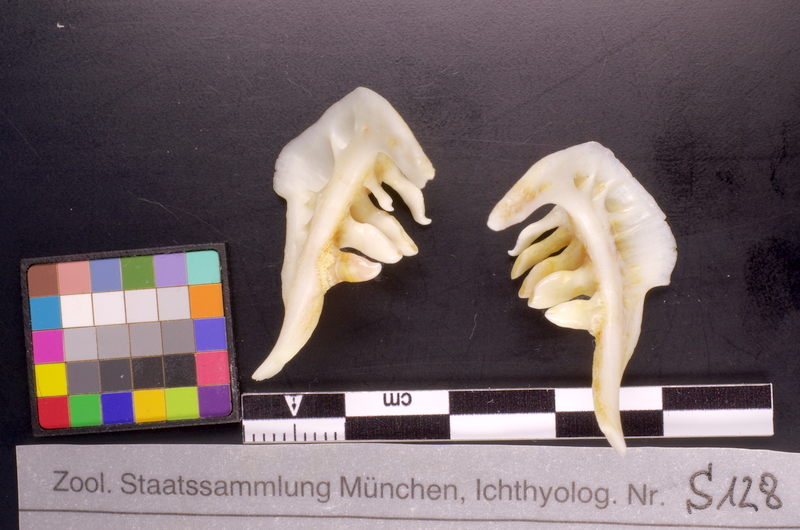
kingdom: Animalia
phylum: Chordata
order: Cypriniformes
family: Cyprinidae
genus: Rutilus
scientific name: Rutilus rutilus
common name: Roach
